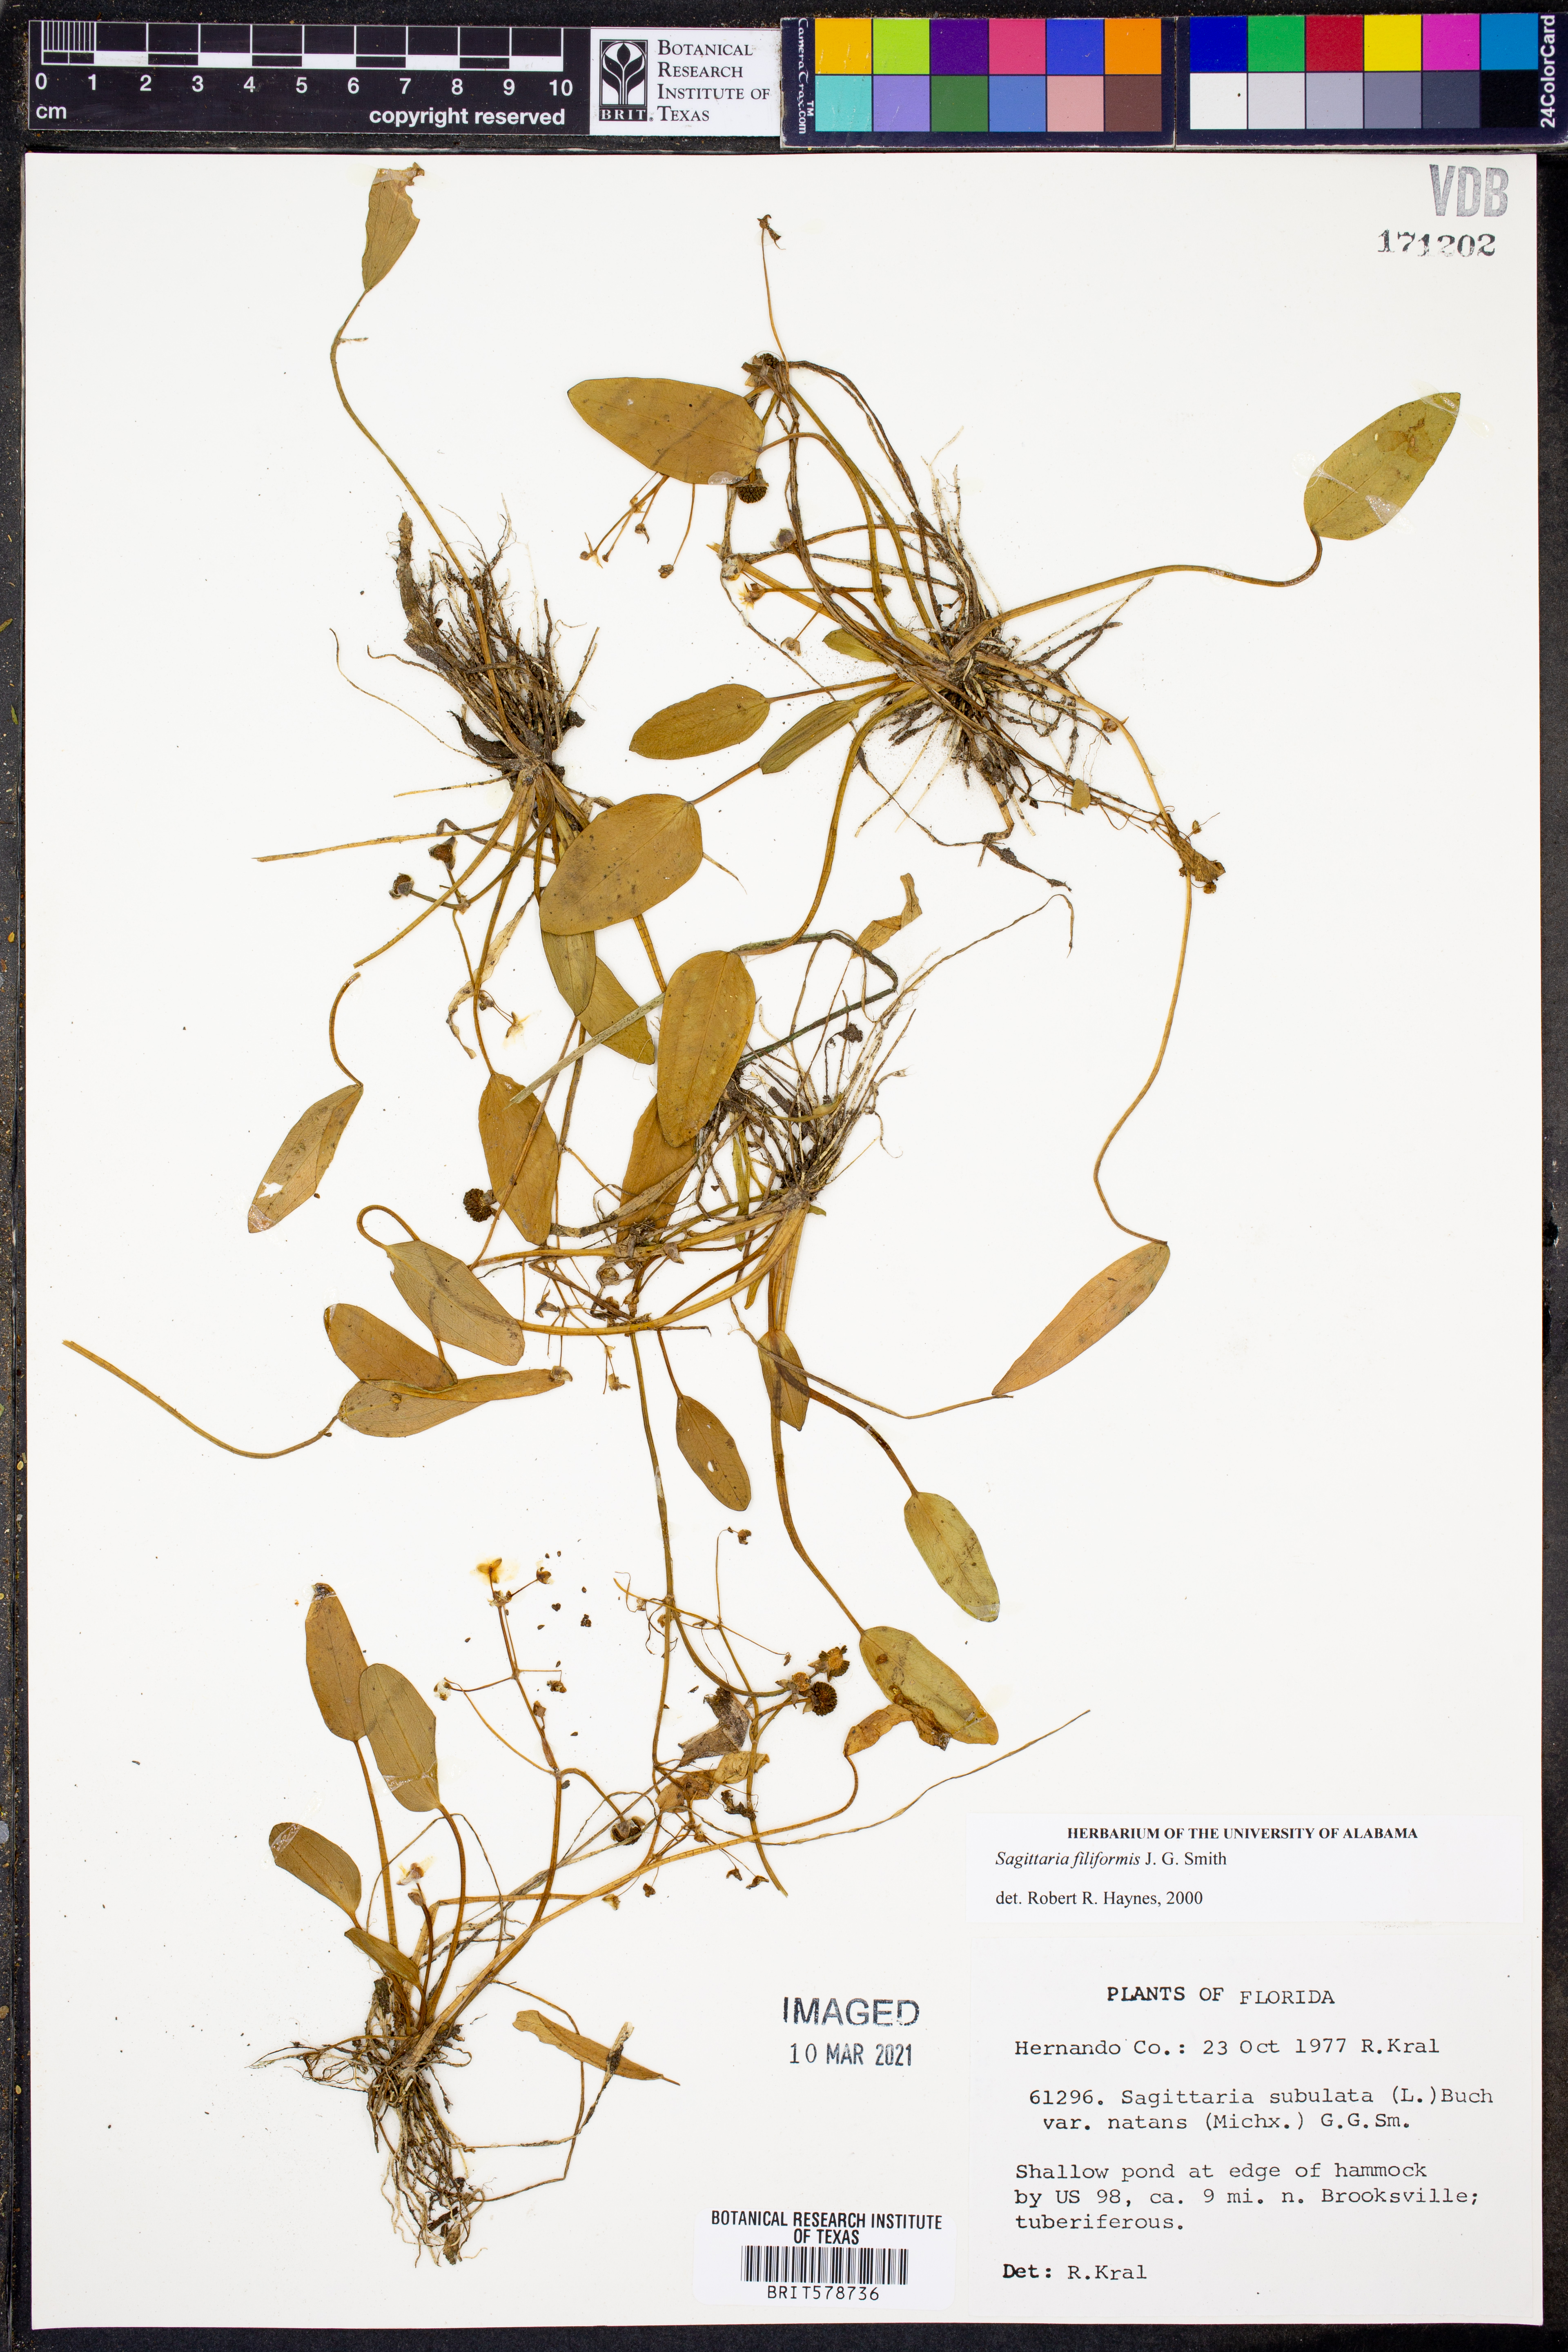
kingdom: Plantae
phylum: Tracheophyta
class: Liliopsida
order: Alismatales
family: Alismataceae
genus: Sagittaria
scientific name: Sagittaria filiformis
